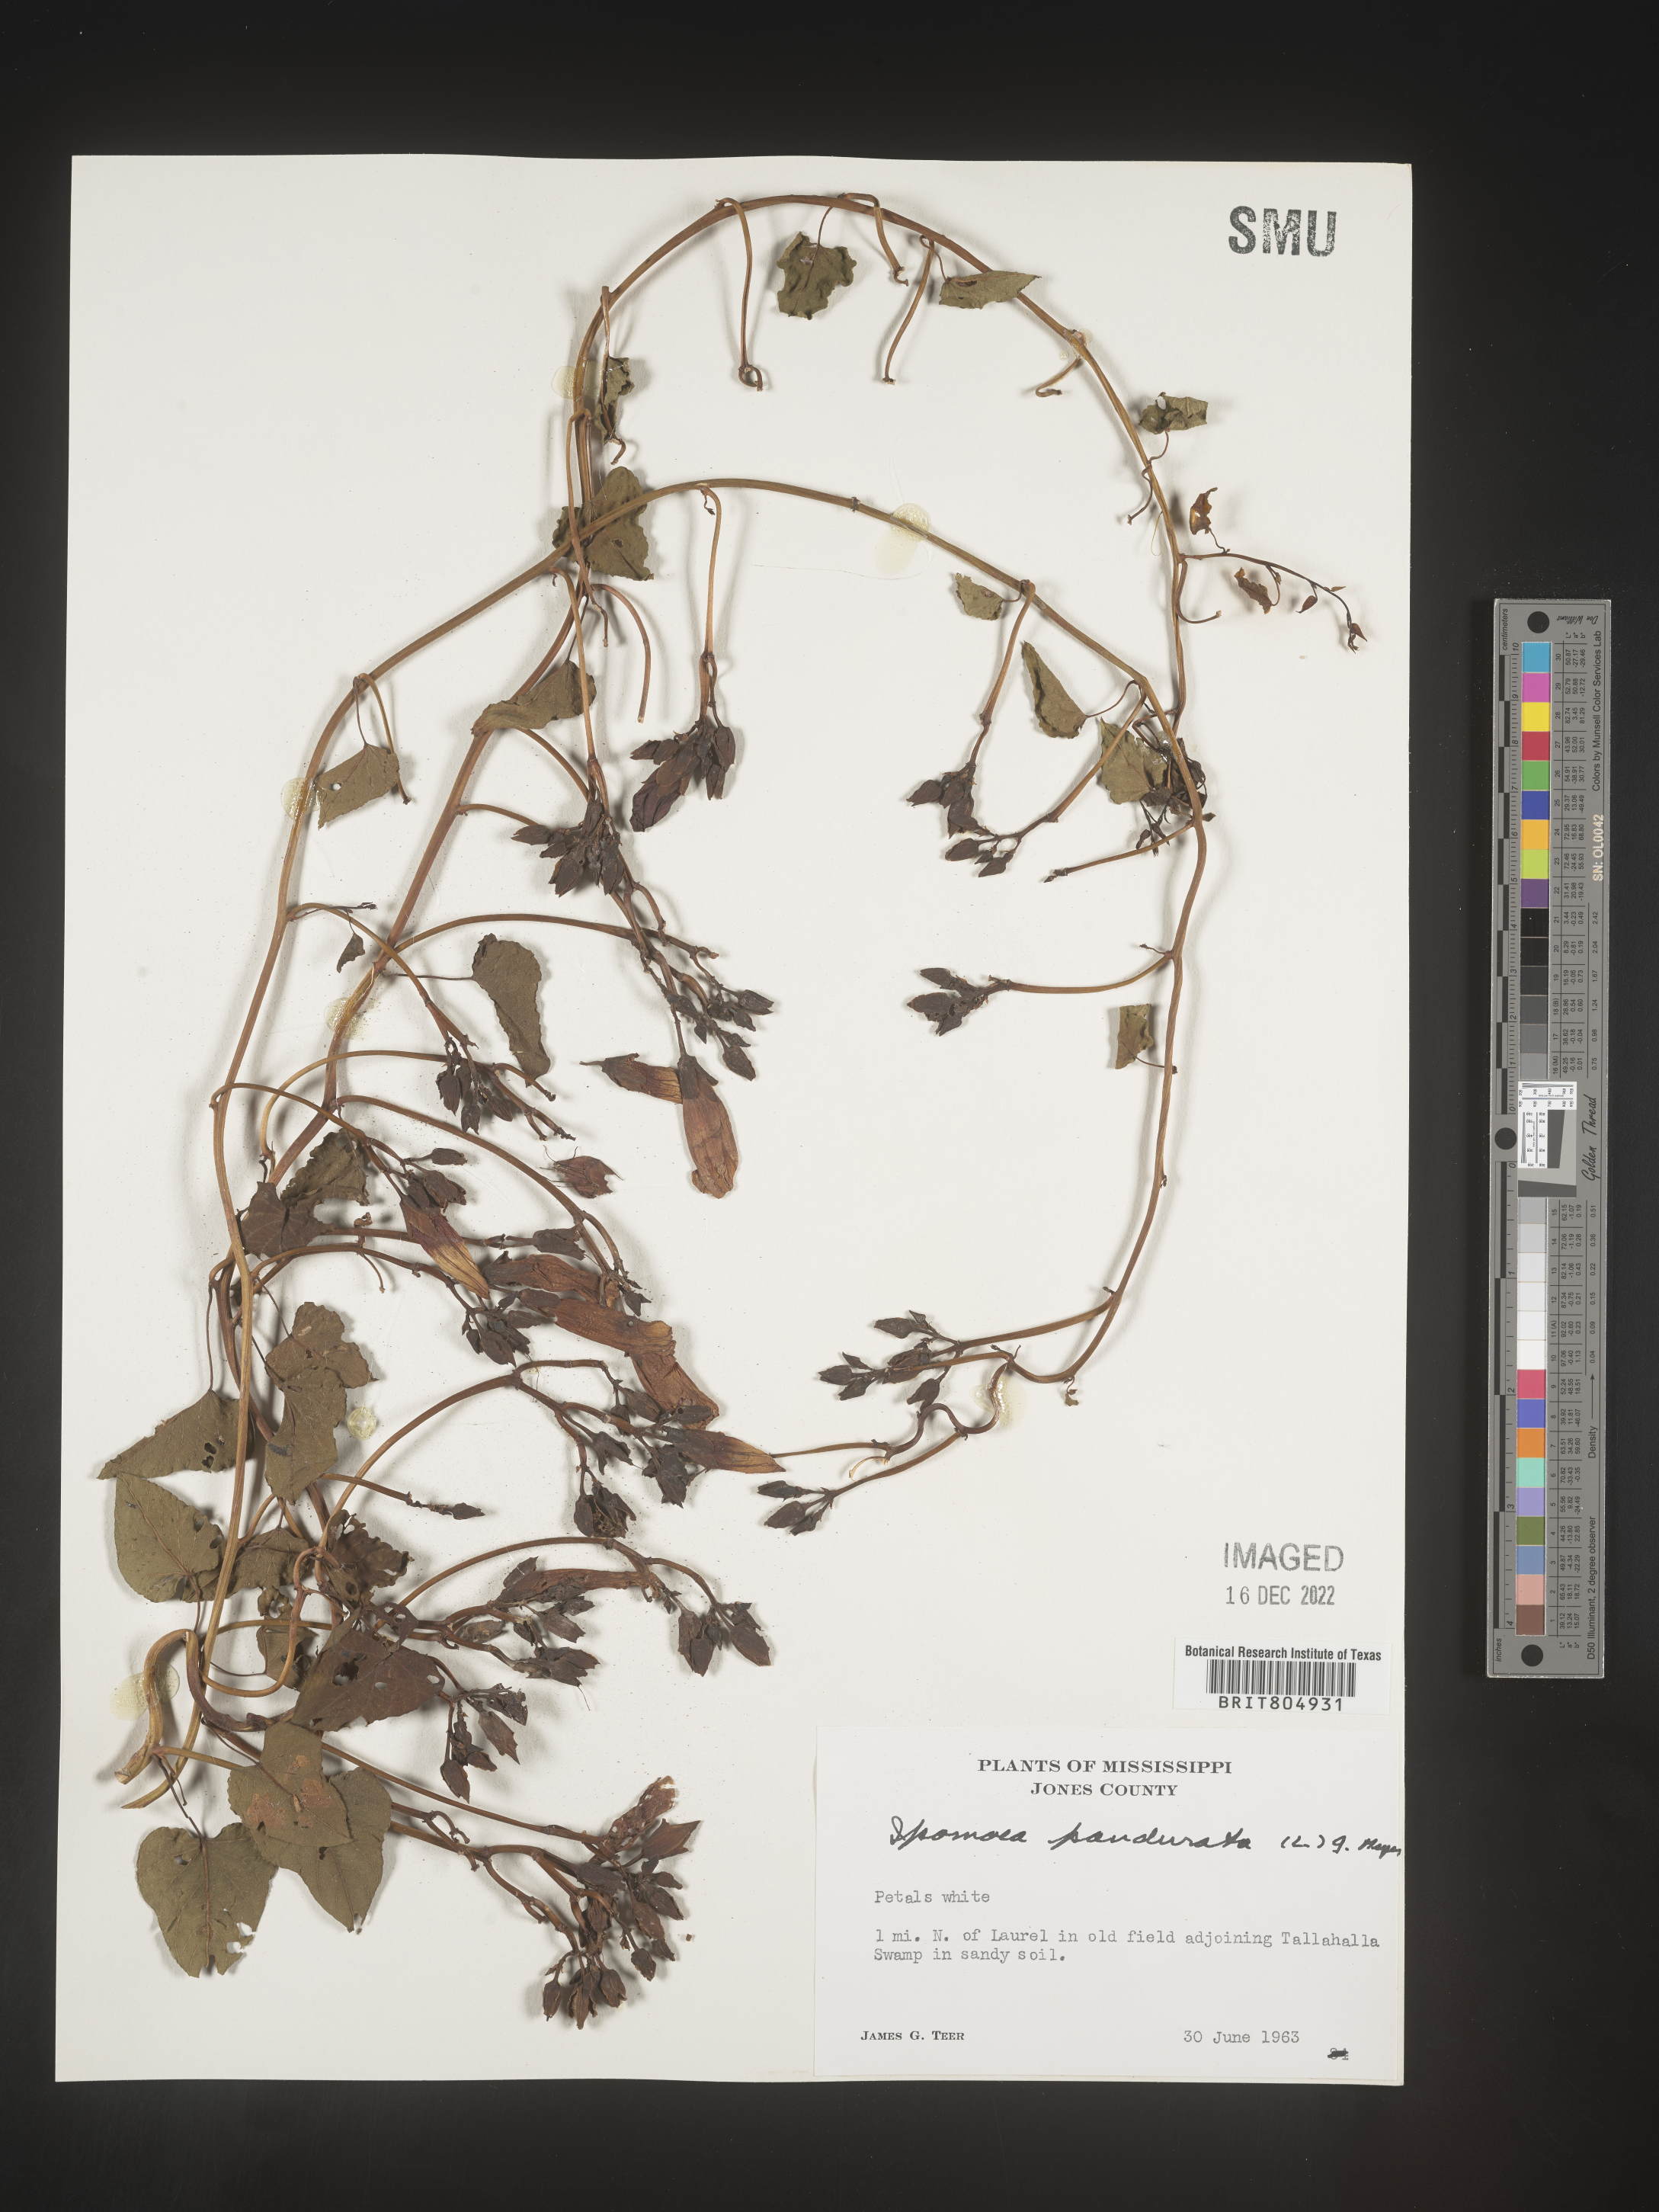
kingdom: Plantae
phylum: Tracheophyta
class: Magnoliopsida
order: Solanales
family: Convolvulaceae
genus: Ipomoea
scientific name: Ipomoea pandurata
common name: Man-of-the-earth
